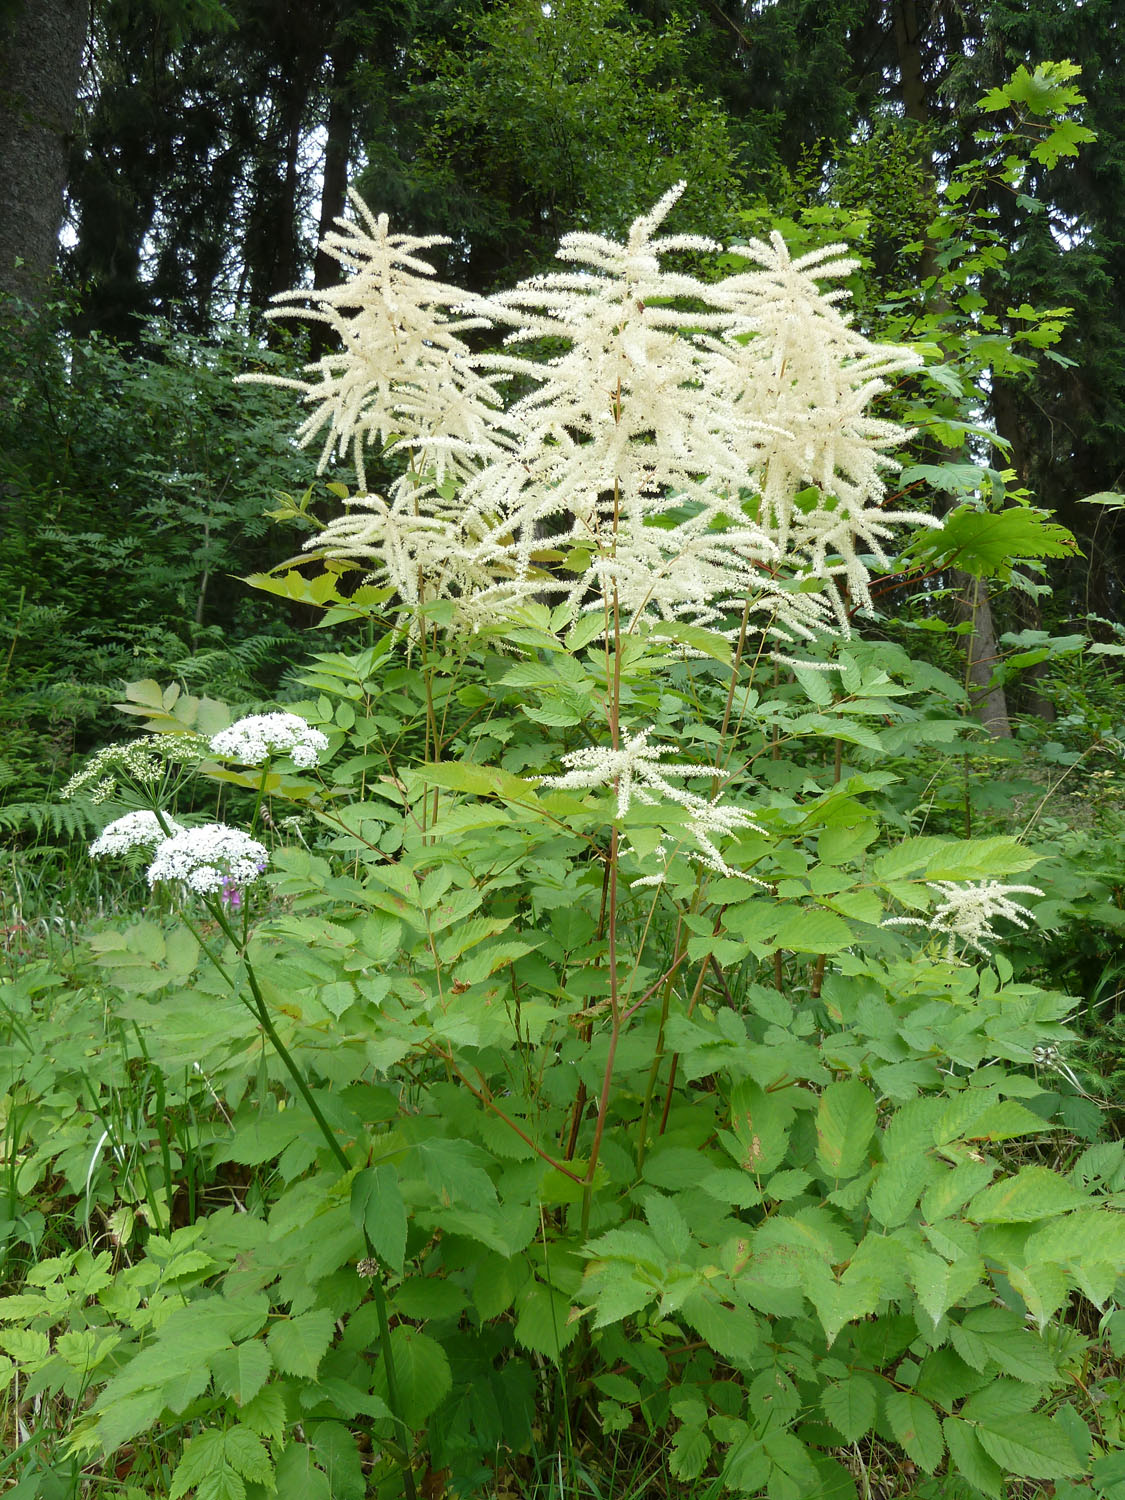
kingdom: Plantae
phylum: Tracheophyta
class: Magnoliopsida
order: Rosales
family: Rosaceae
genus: Aruncus
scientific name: Aruncus dioicus
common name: Buck's-beard
